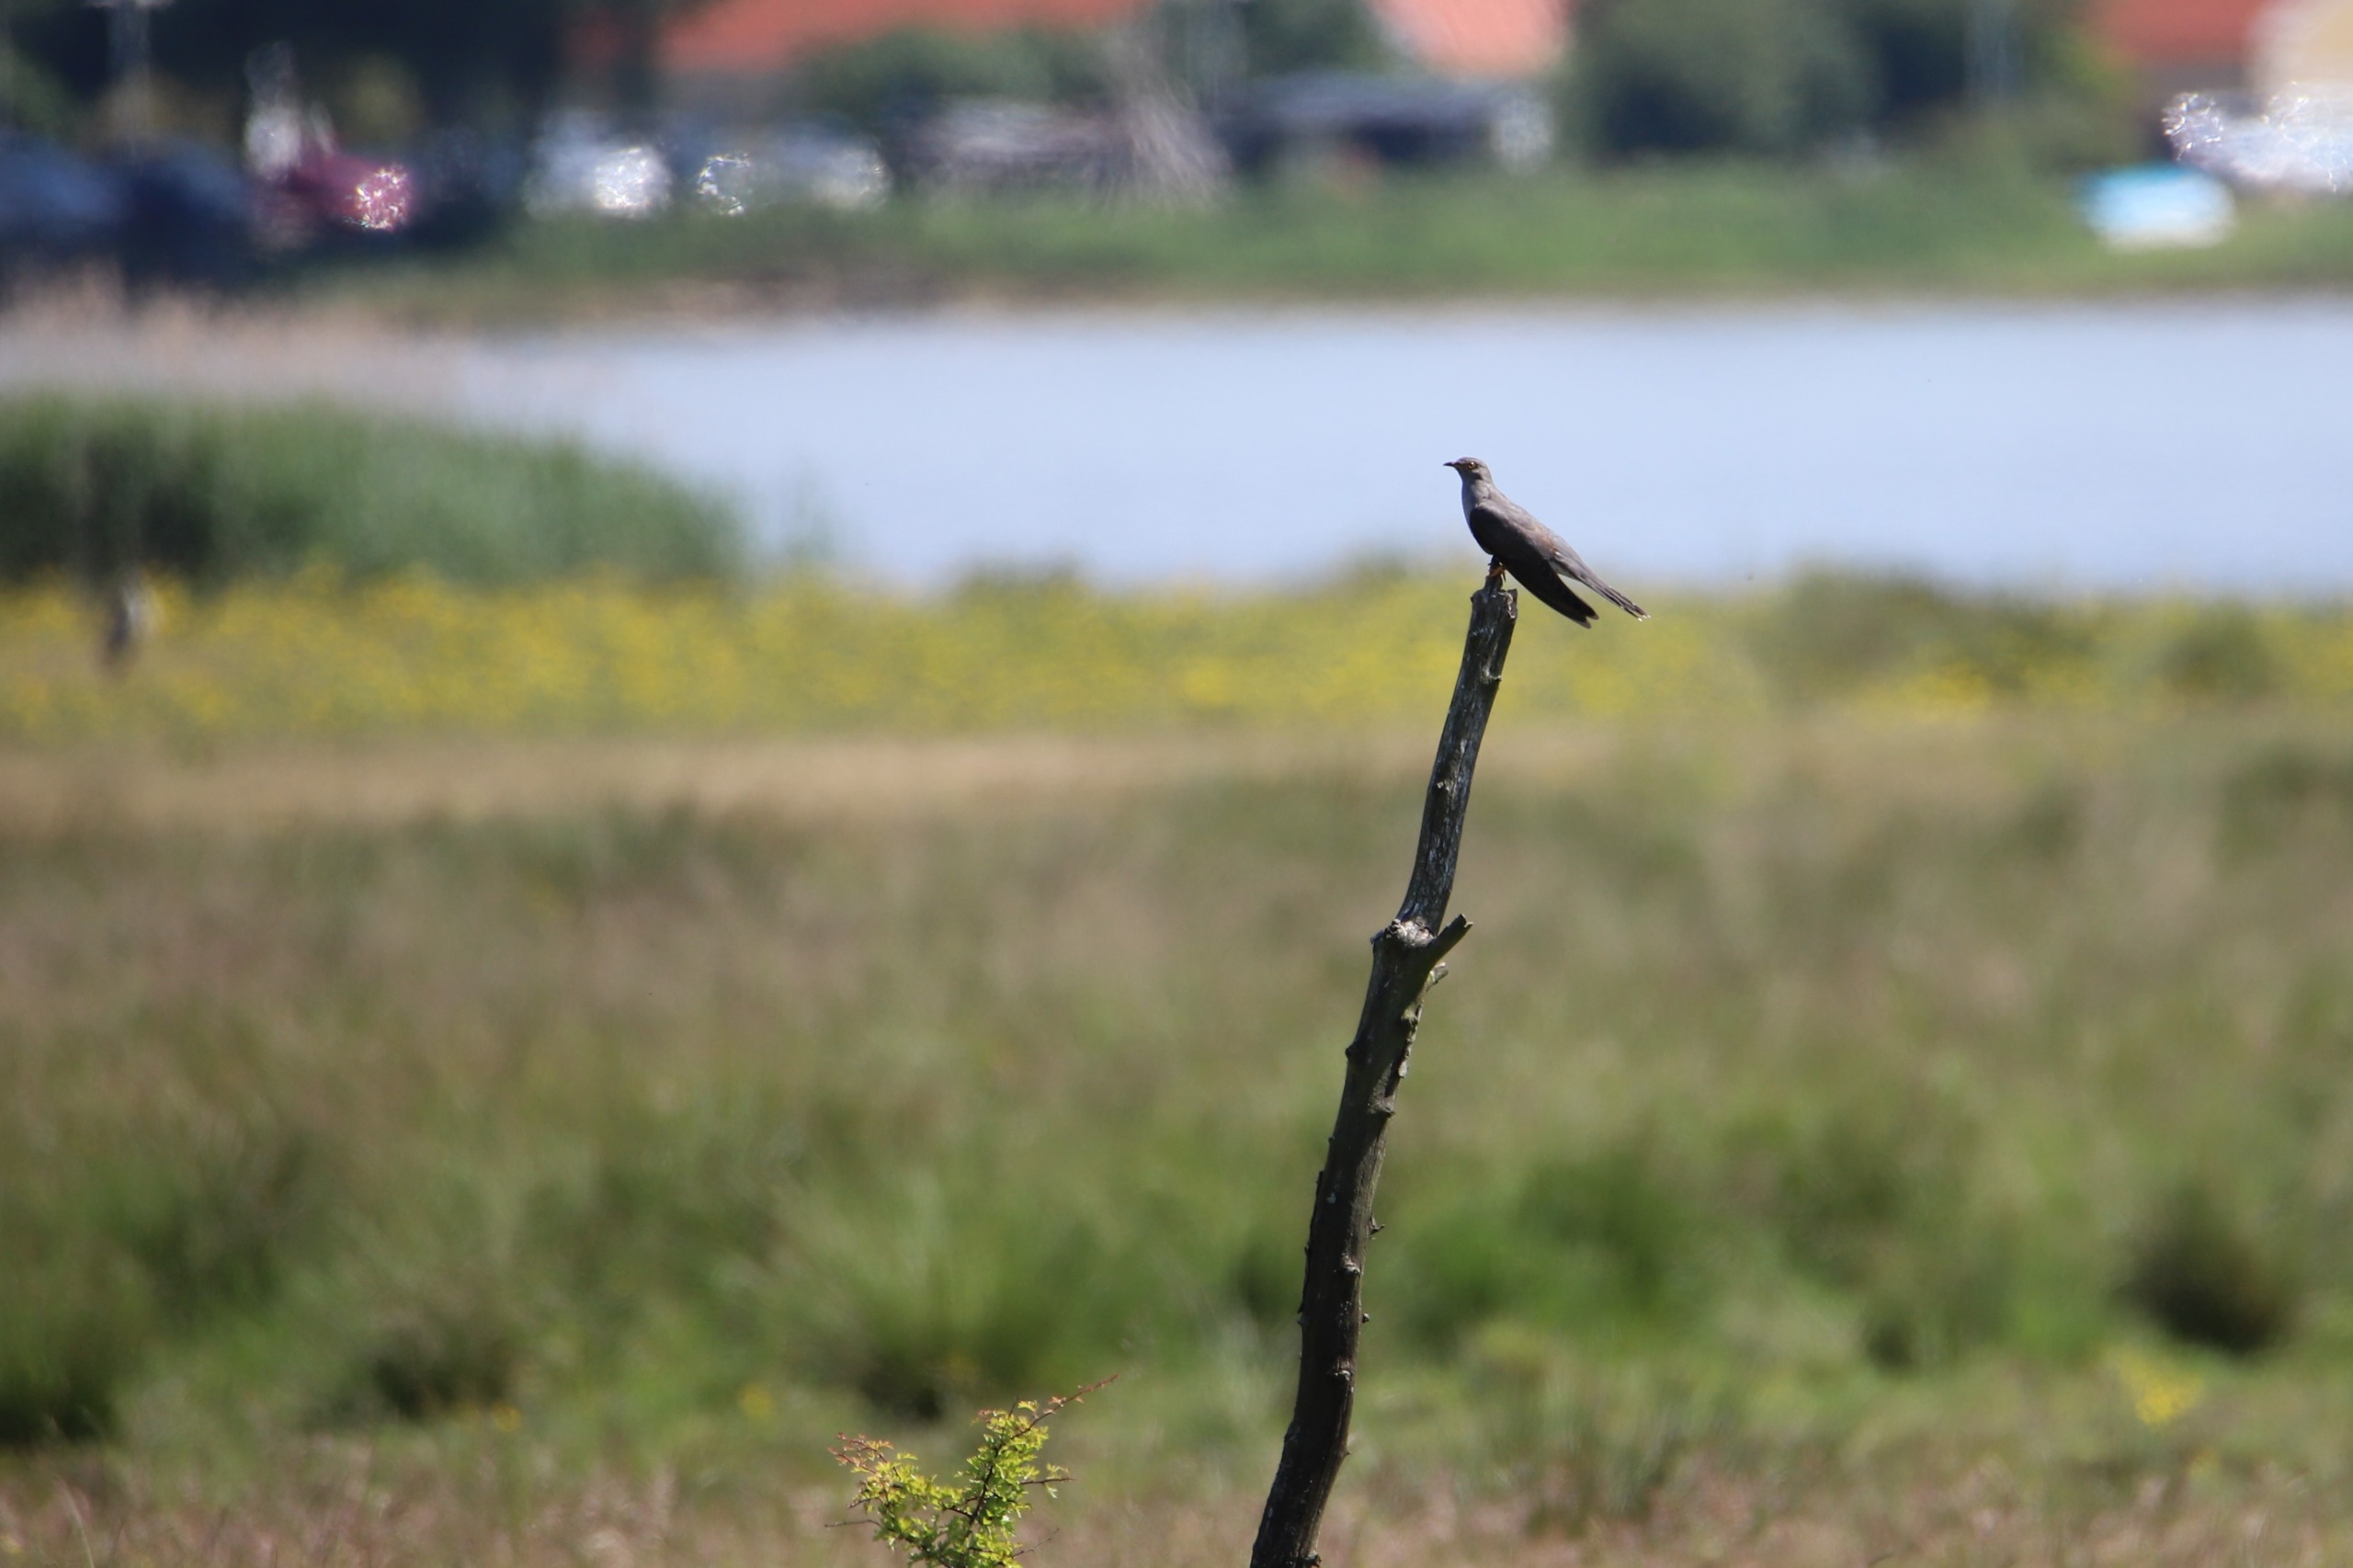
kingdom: Animalia
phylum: Chordata
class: Aves
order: Cuculiformes
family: Cuculidae
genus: Cuculus
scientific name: Cuculus canorus
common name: Gøg
